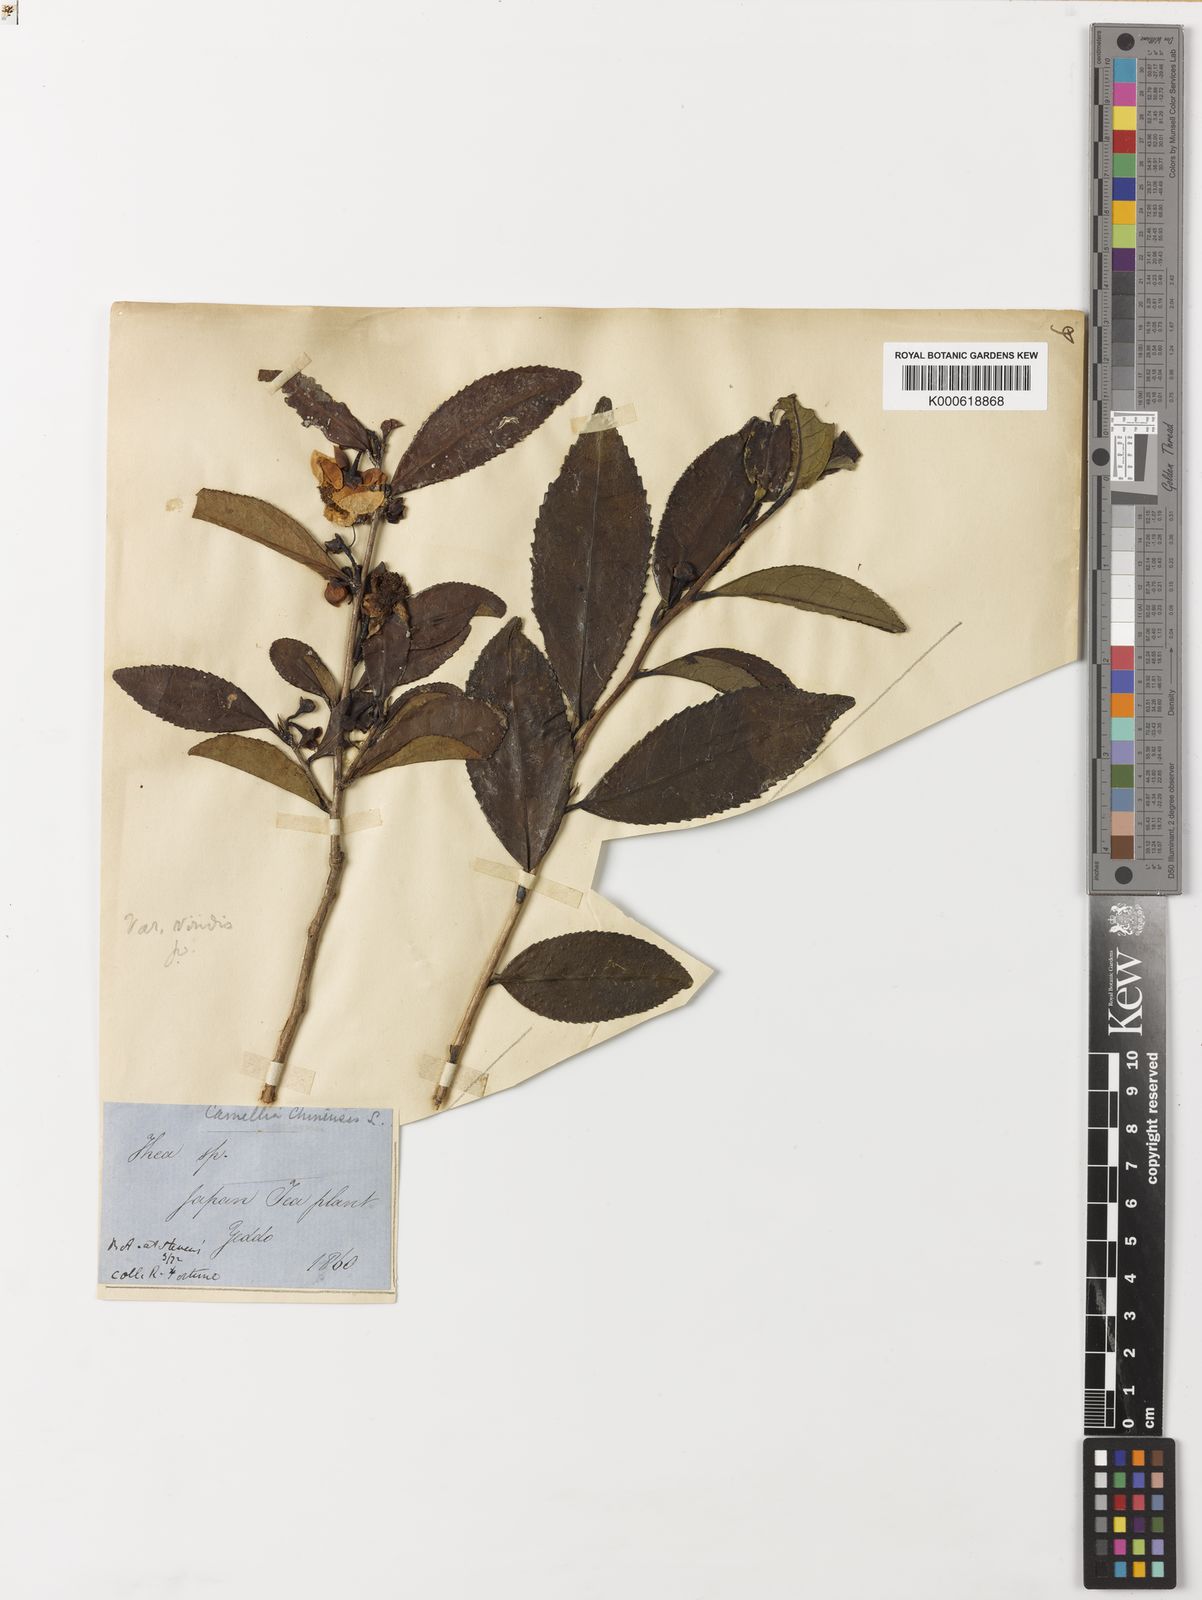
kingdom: Plantae
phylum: Tracheophyta
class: Magnoliopsida
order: Ericales
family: Theaceae
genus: Camellia
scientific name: Camellia
